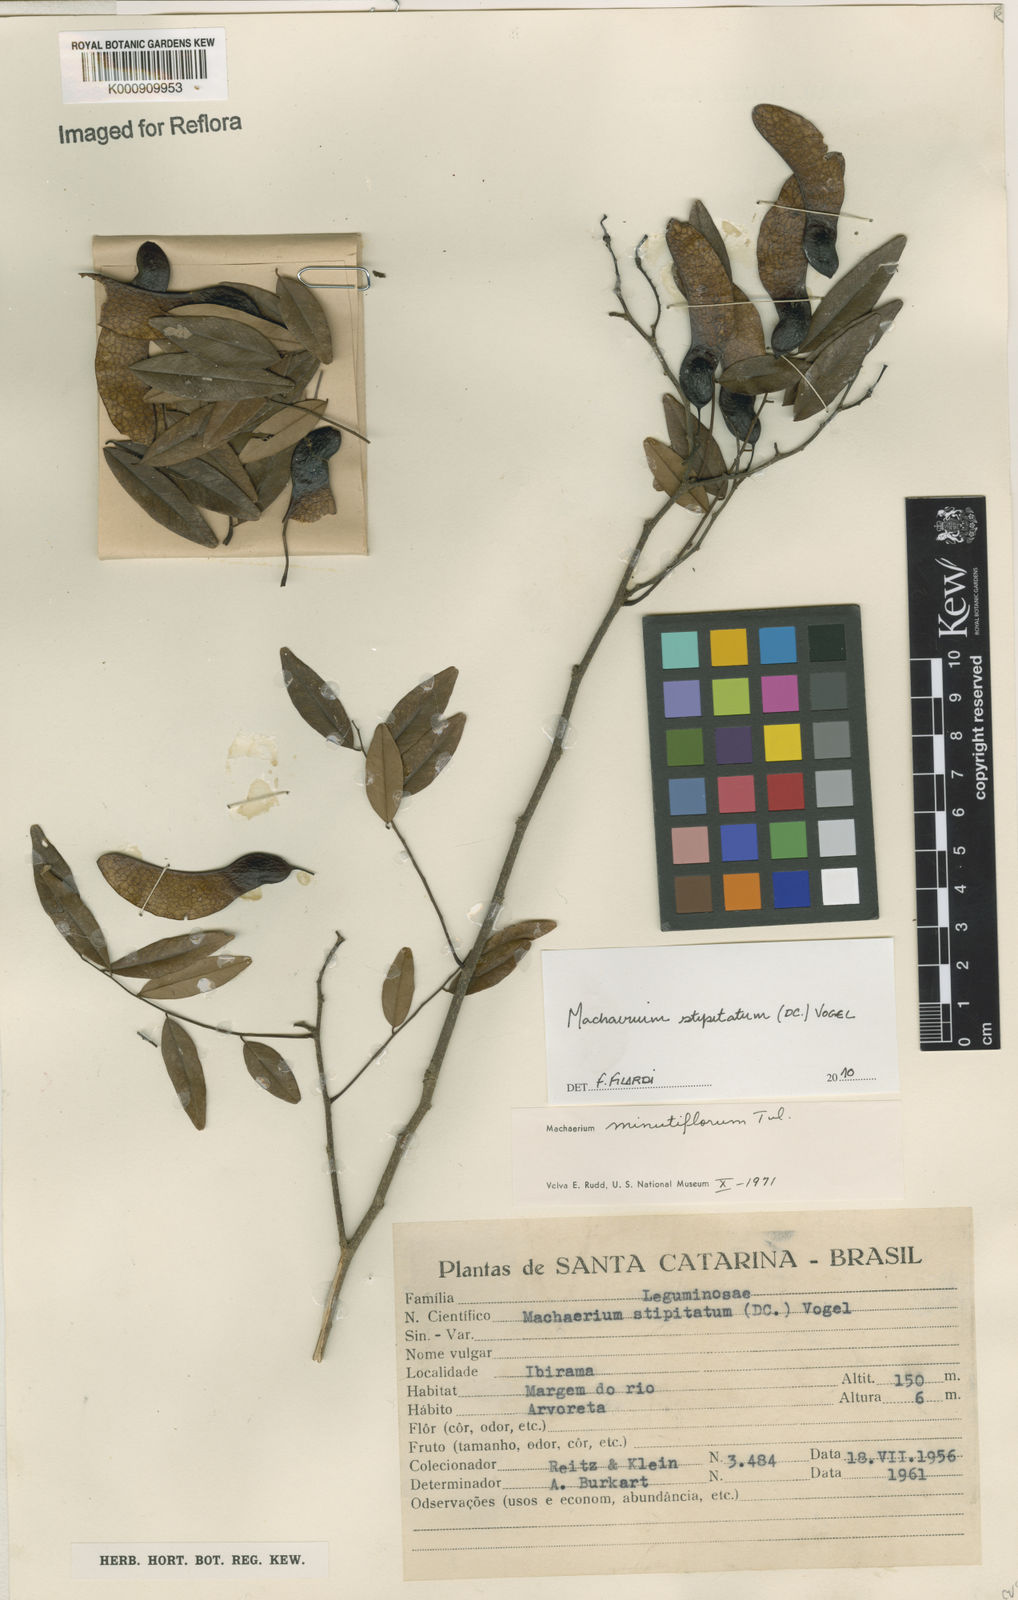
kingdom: Plantae
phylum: Tracheophyta
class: Magnoliopsida
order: Fabales
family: Fabaceae
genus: Machaerium
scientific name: Machaerium stipitatum
